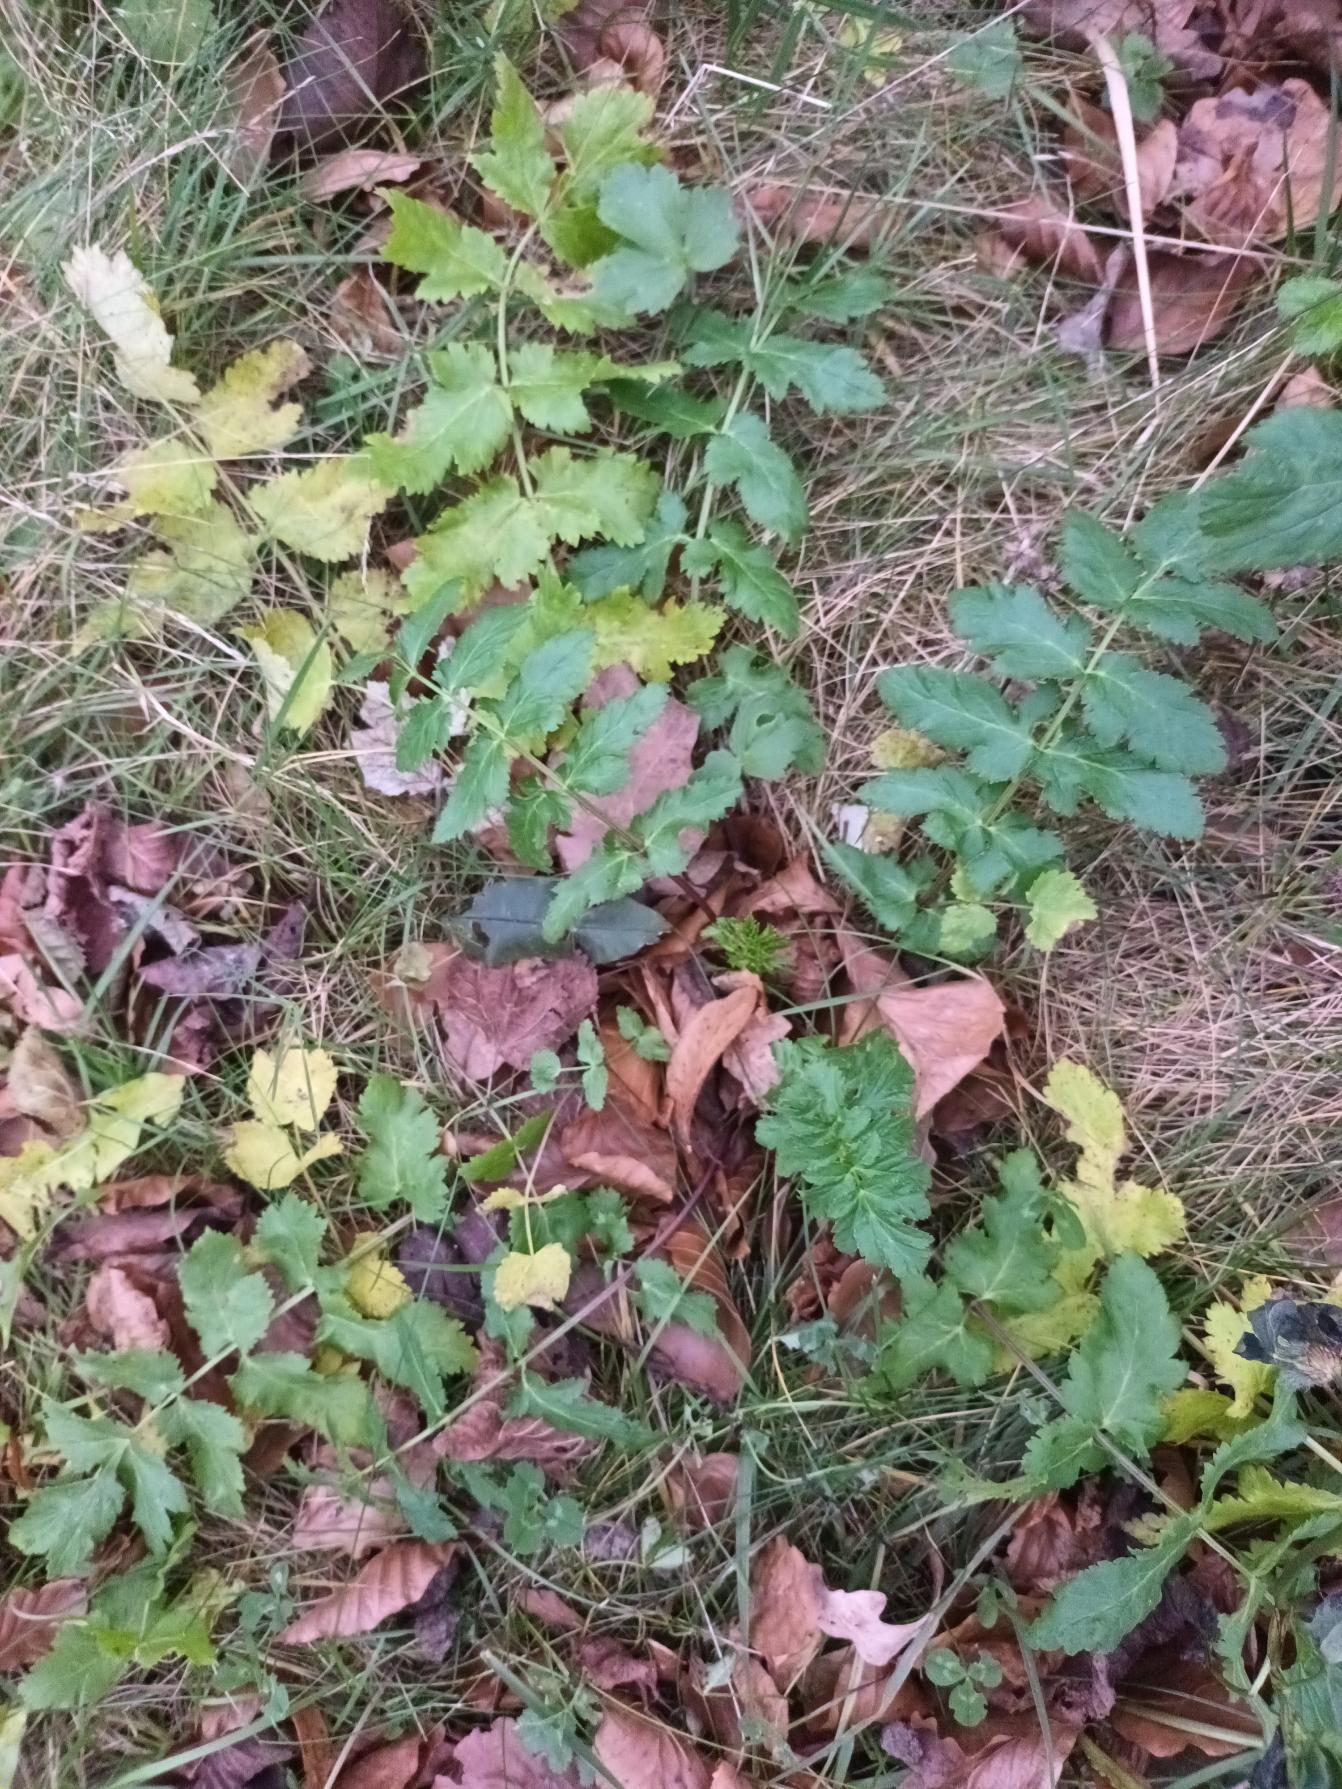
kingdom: Plantae
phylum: Tracheophyta
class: Magnoliopsida
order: Apiales
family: Apiaceae
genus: Pastinaca
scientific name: Pastinaca sativa
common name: Pastinak
